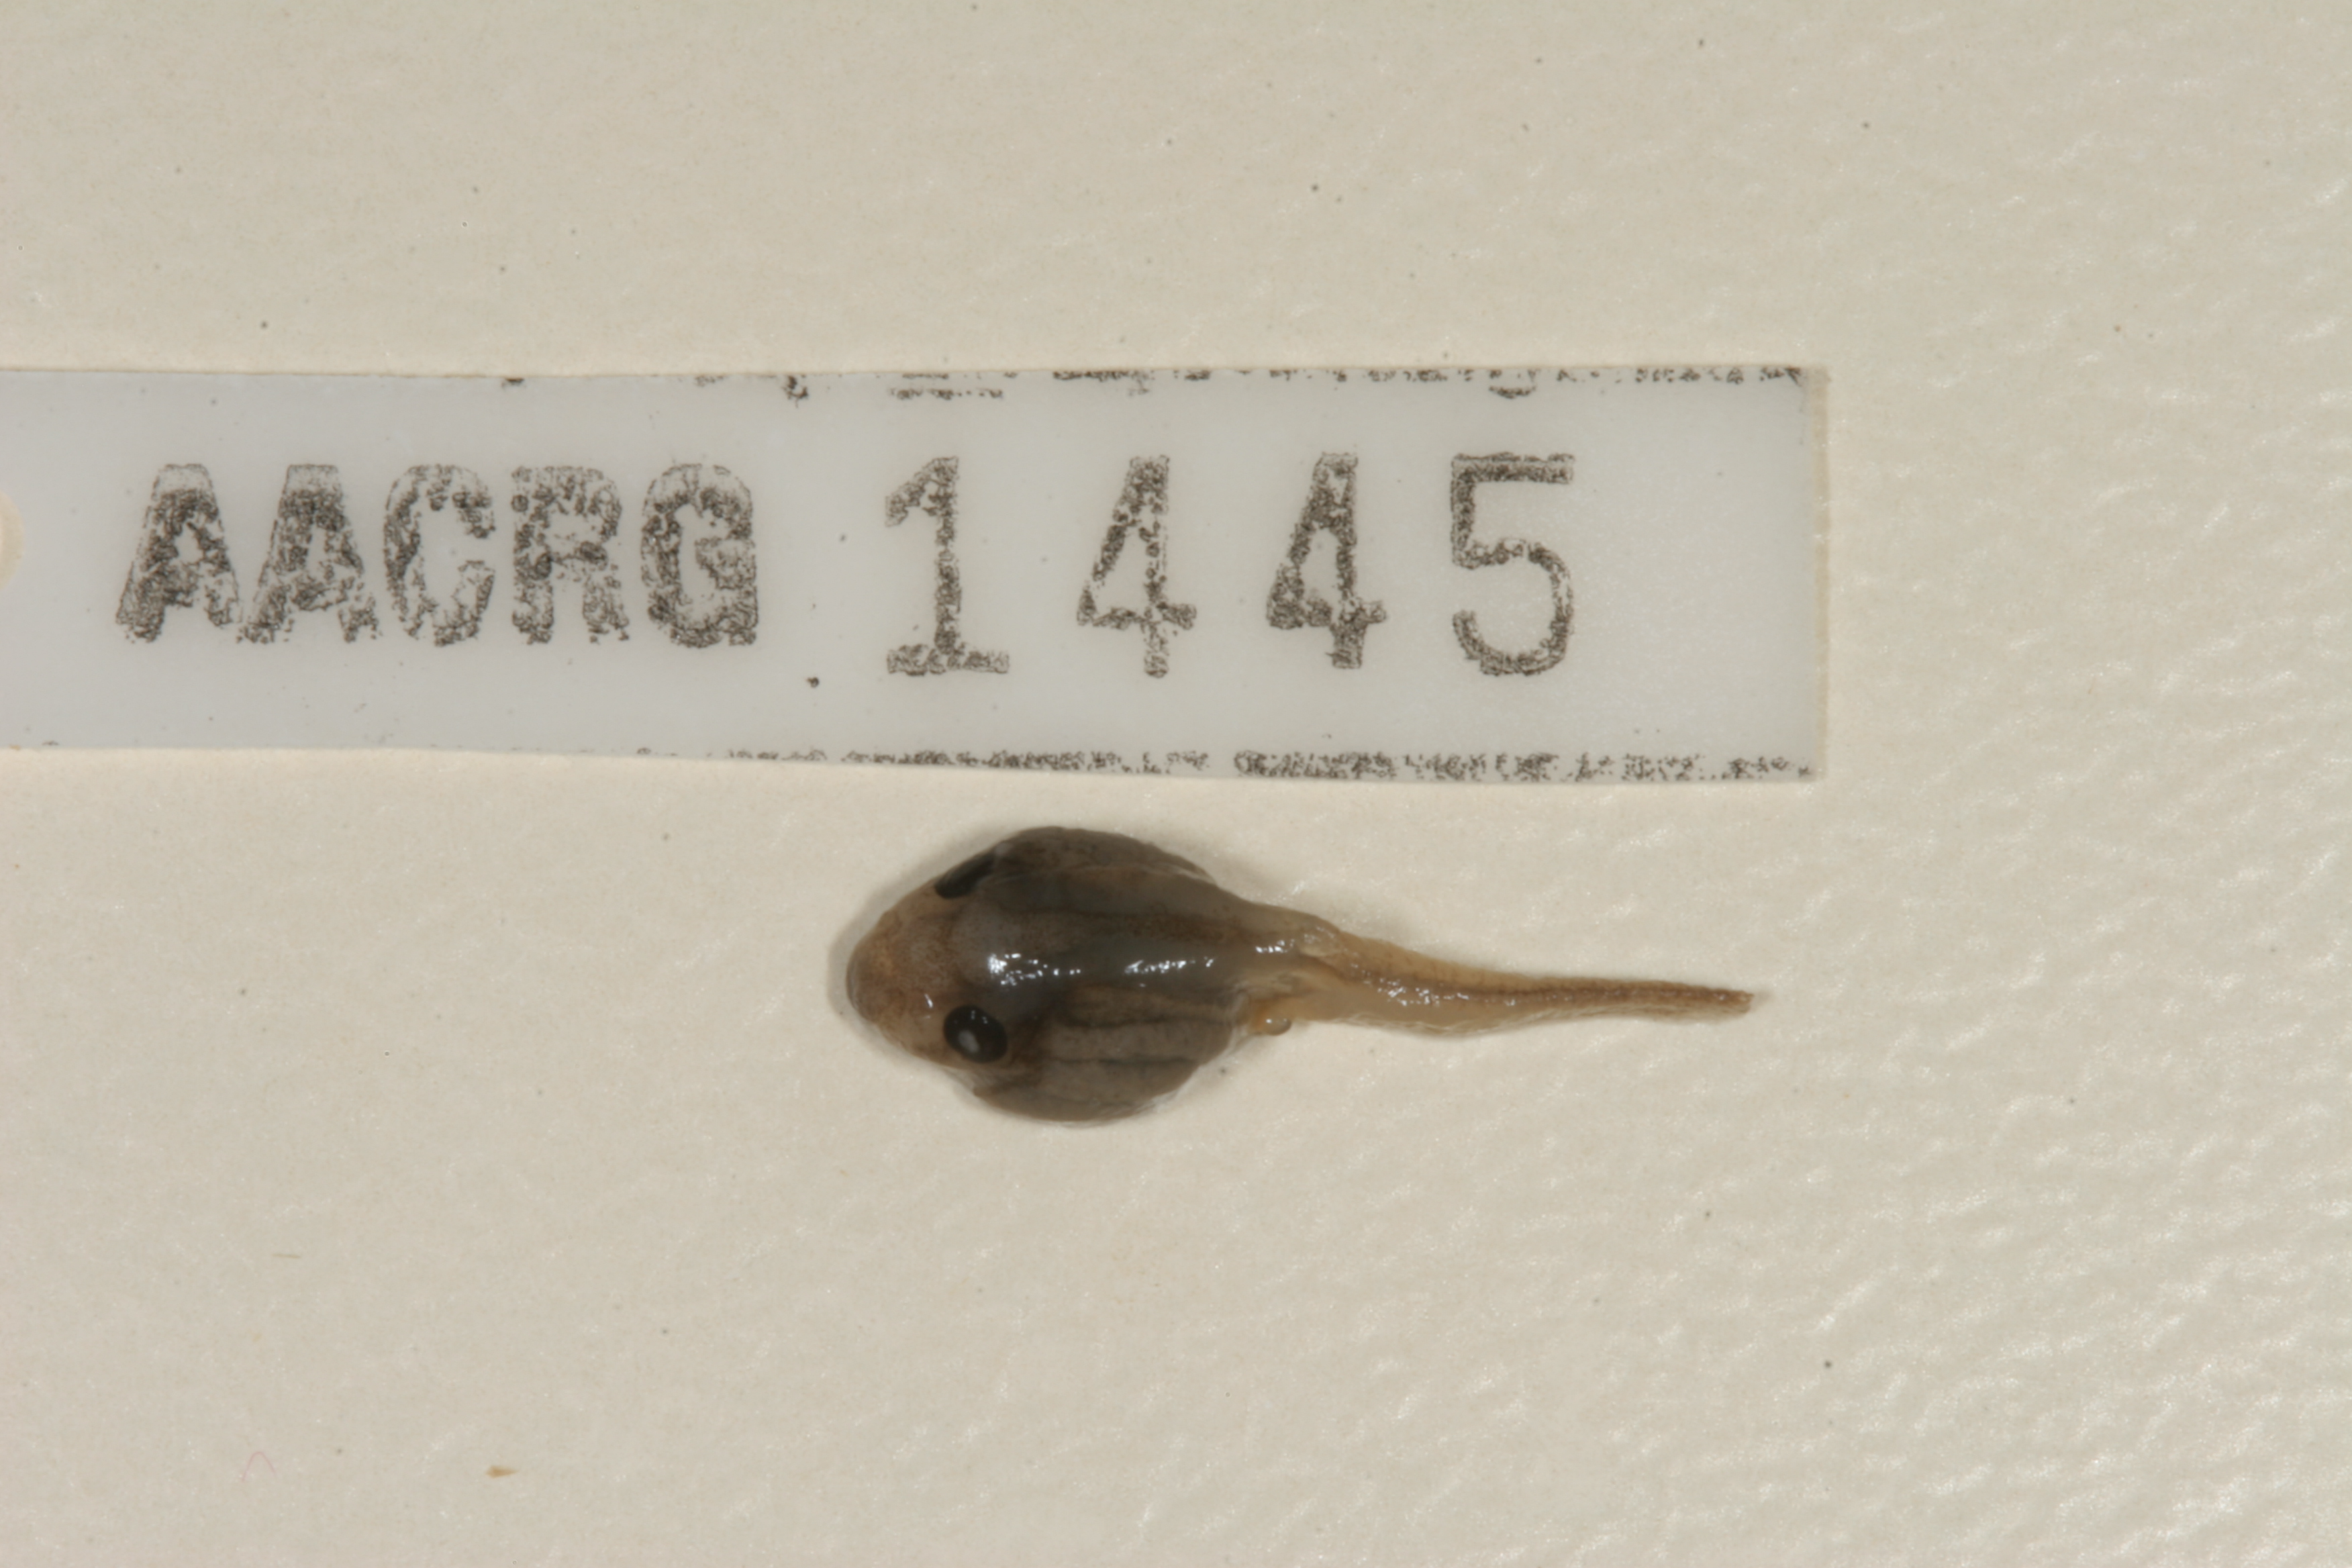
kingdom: Animalia
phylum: Chordata
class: Amphibia
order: Anura
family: Hyperoliidae
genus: Hyperolius
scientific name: Hyperolius pusillus
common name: Water lily reed frog
